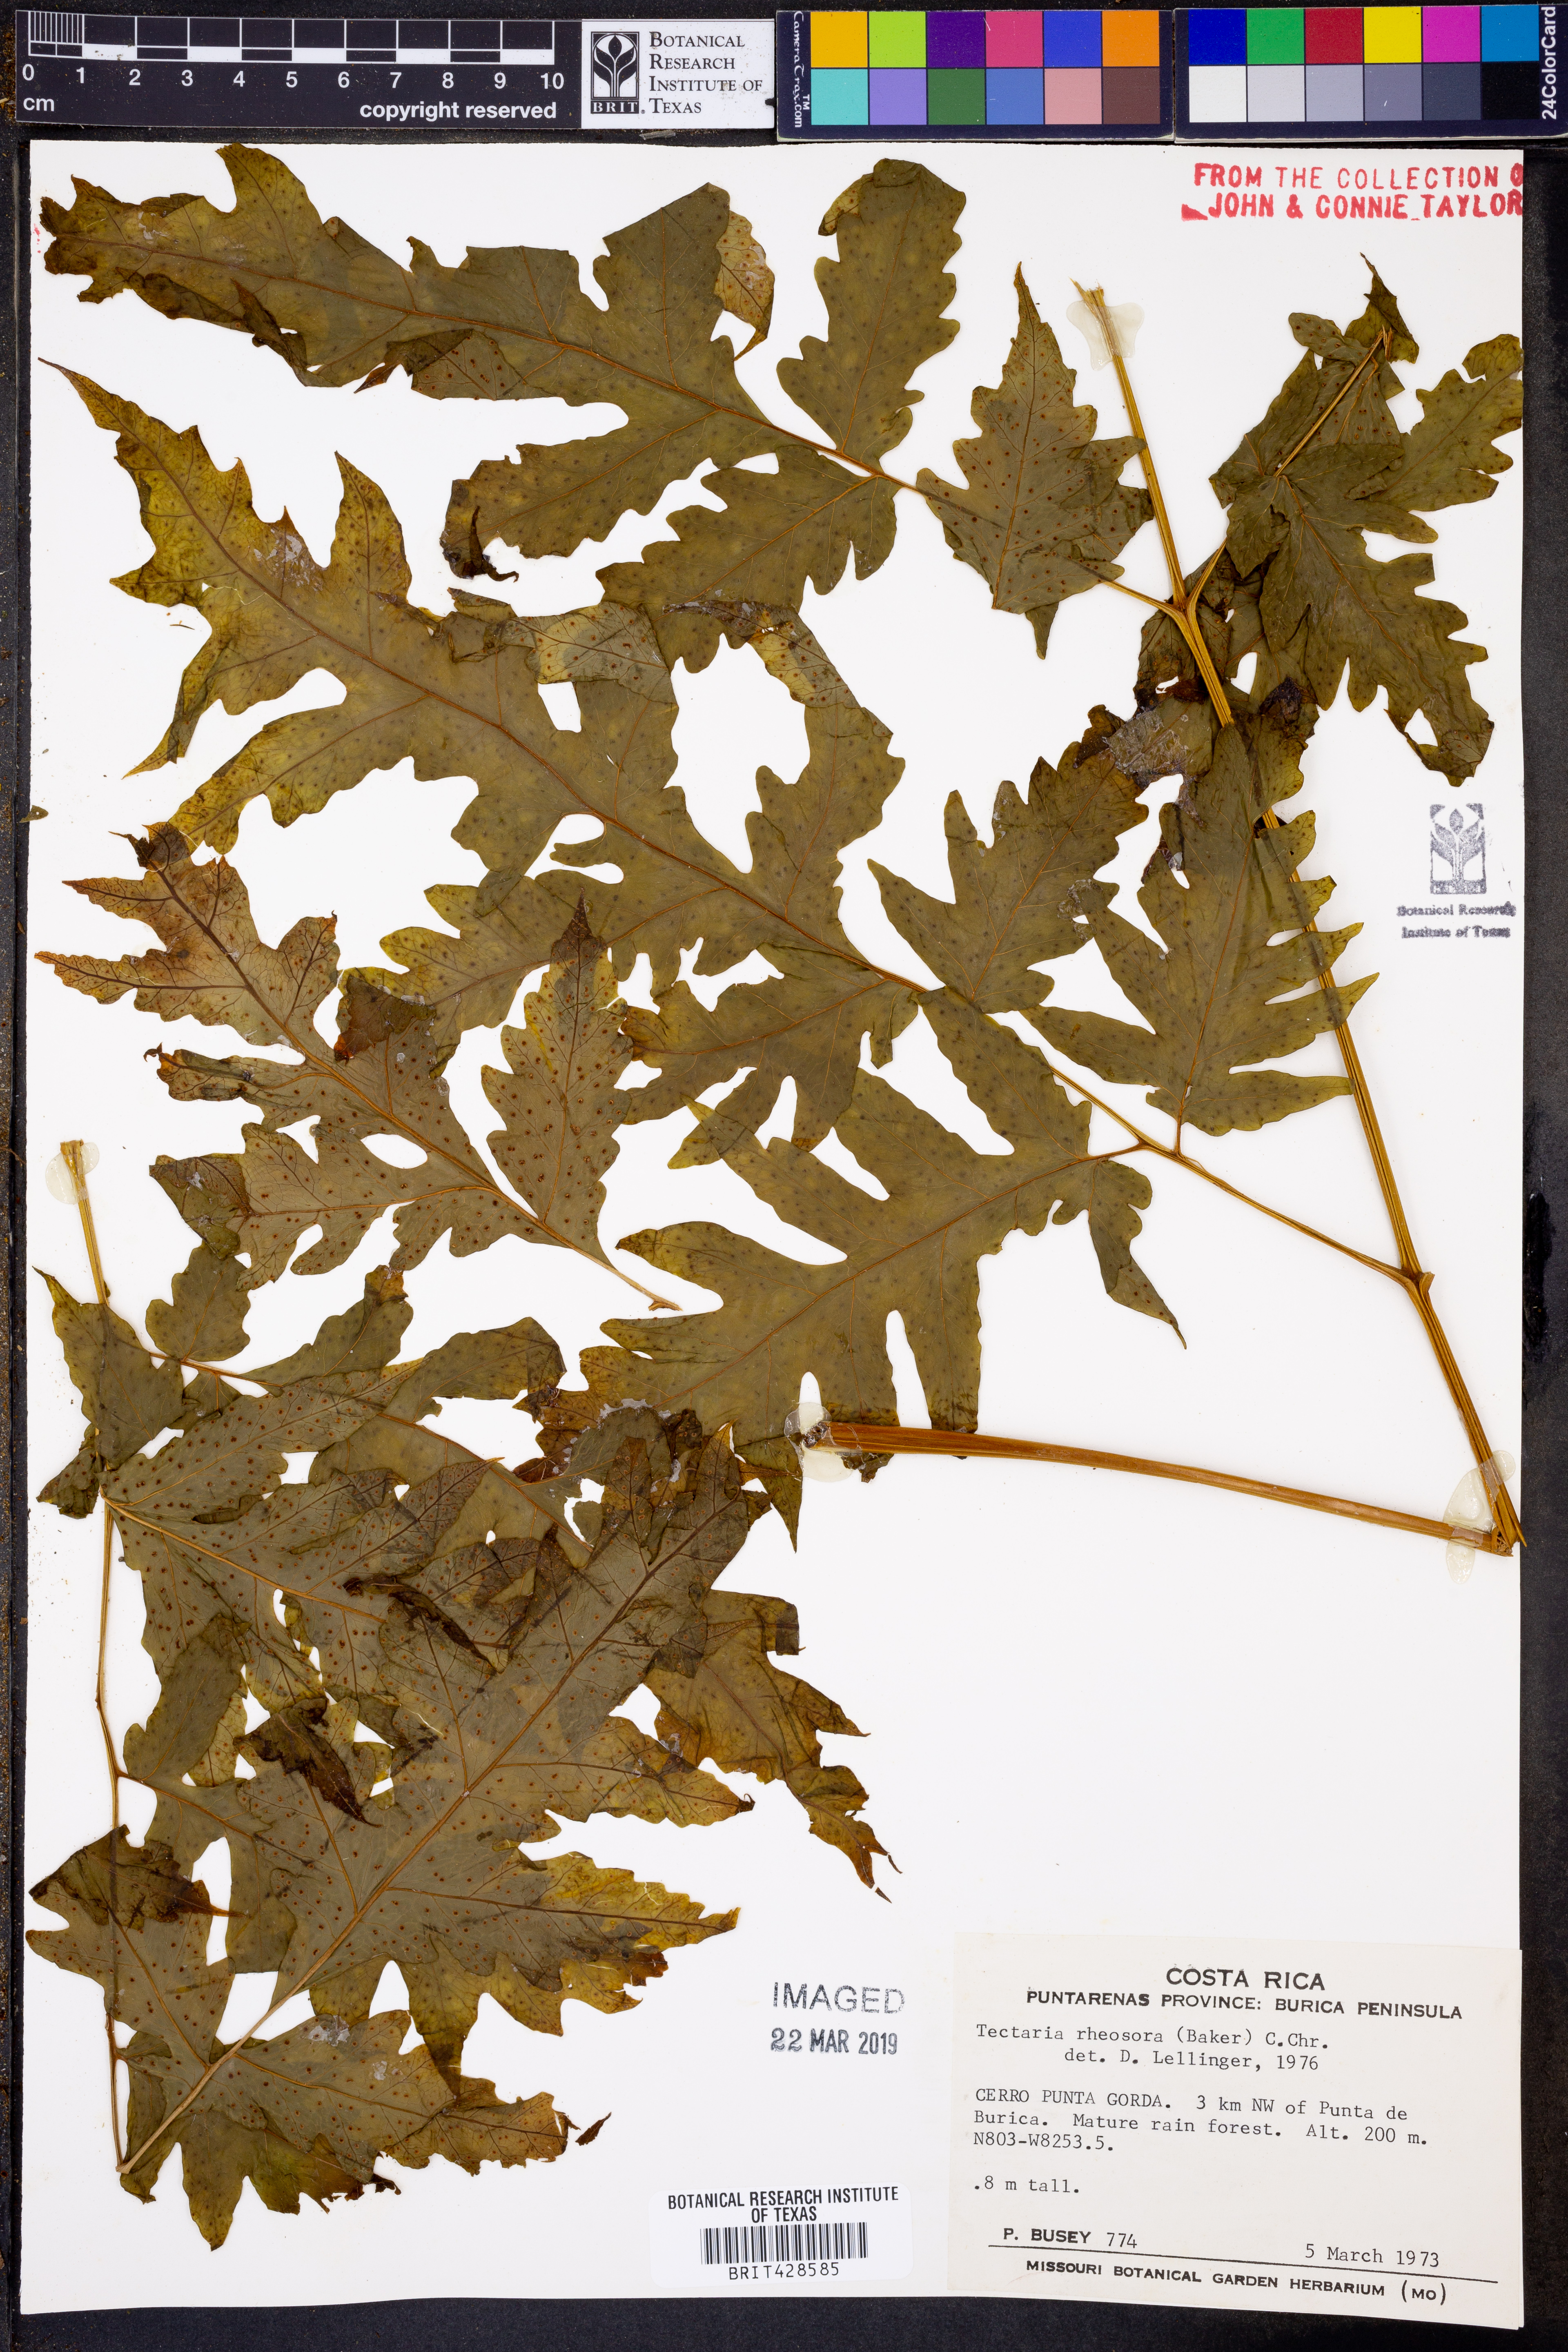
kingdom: Plantae
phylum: Tracheophyta
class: Polypodiopsida
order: Polypodiales
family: Tectariaceae
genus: Tectaria
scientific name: Tectaria athyrioides
